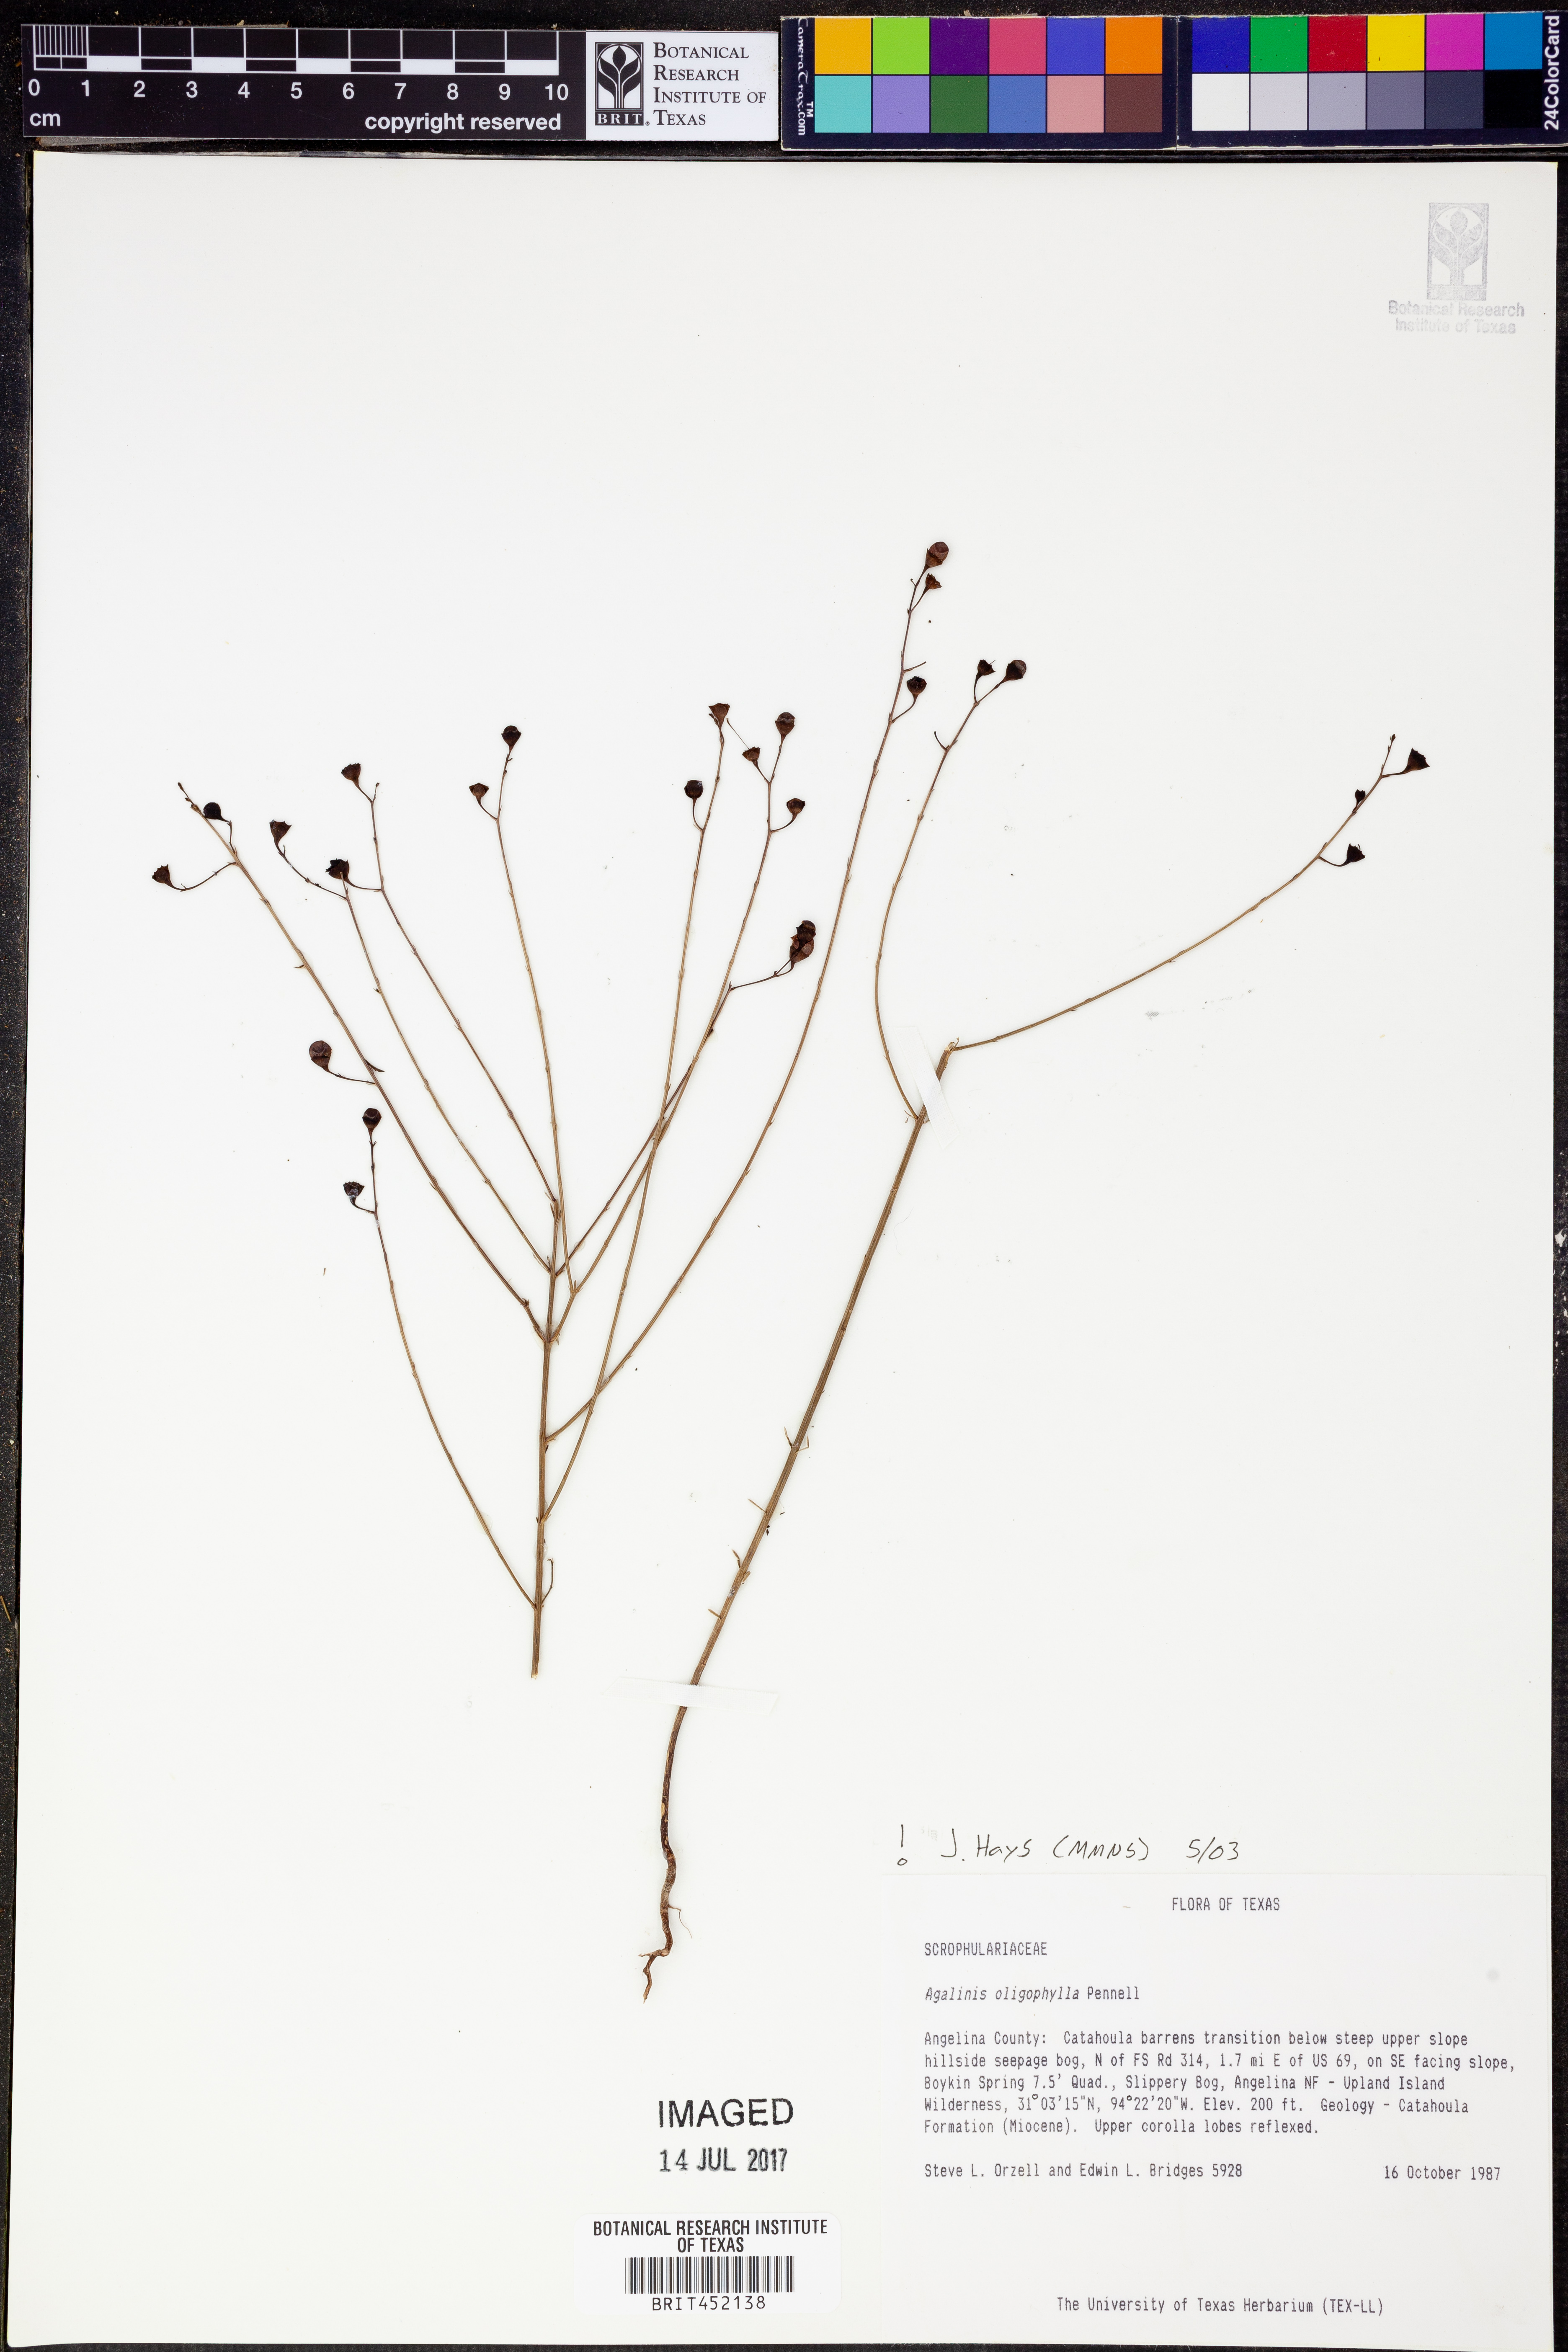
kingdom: Plantae
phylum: Tracheophyta
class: Magnoliopsida
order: Lamiales
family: Orobanchaceae
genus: Agalinis
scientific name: Agalinis oligophylla
